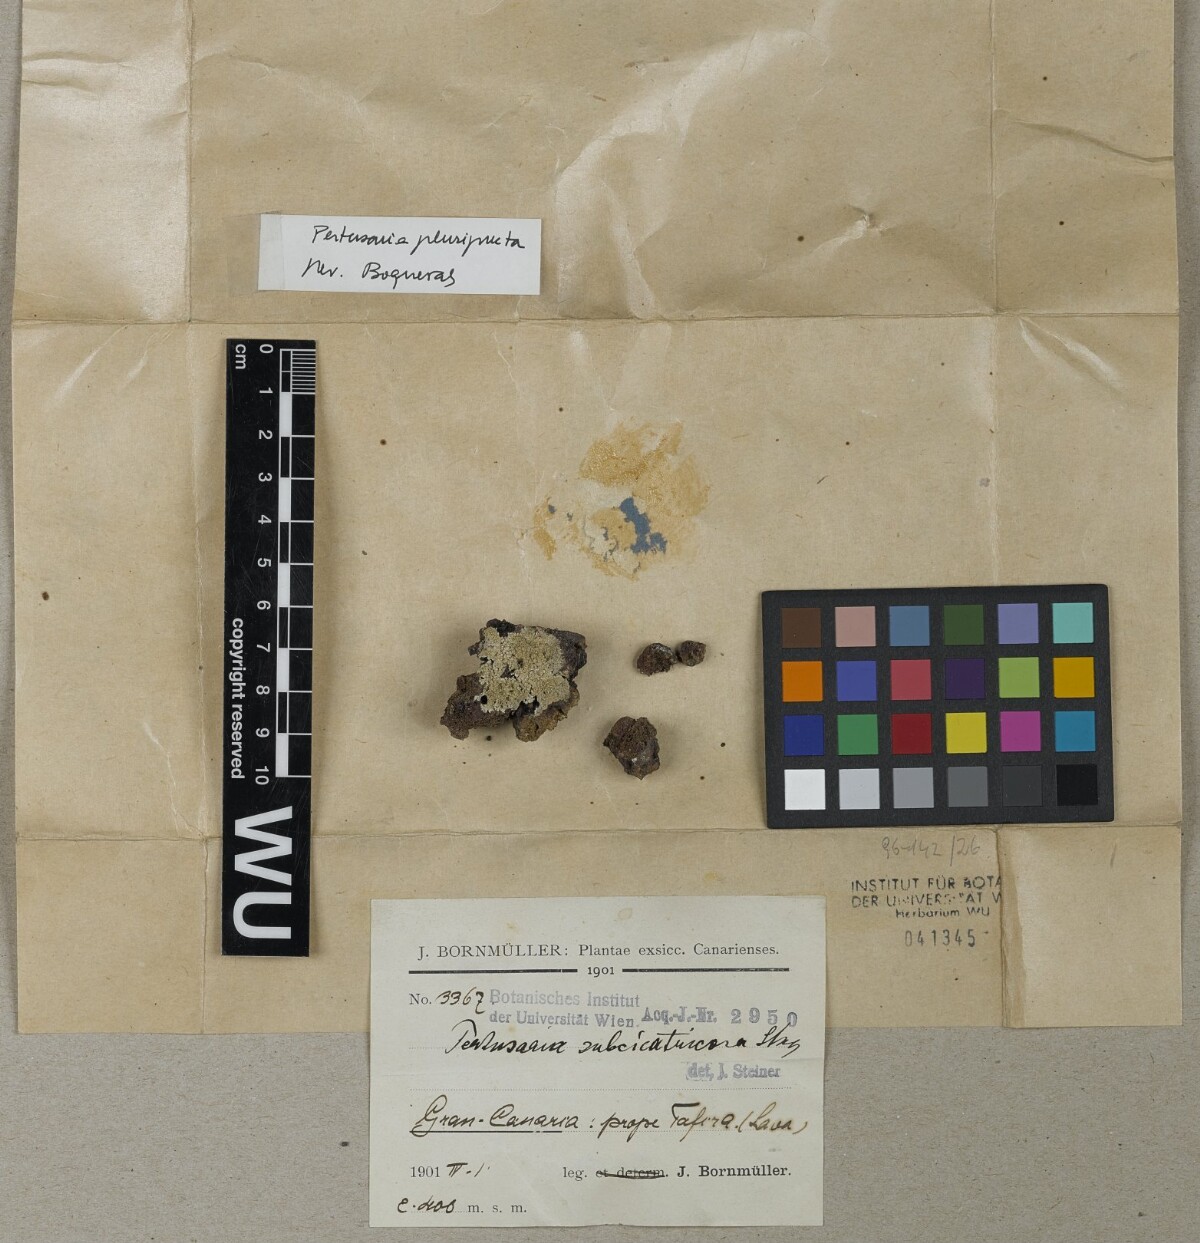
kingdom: Fungi
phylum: Ascomycota
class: Lecanoromycetes
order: Pertusariales
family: Pertusariaceae
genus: Pertusaria
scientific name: Pertusaria
